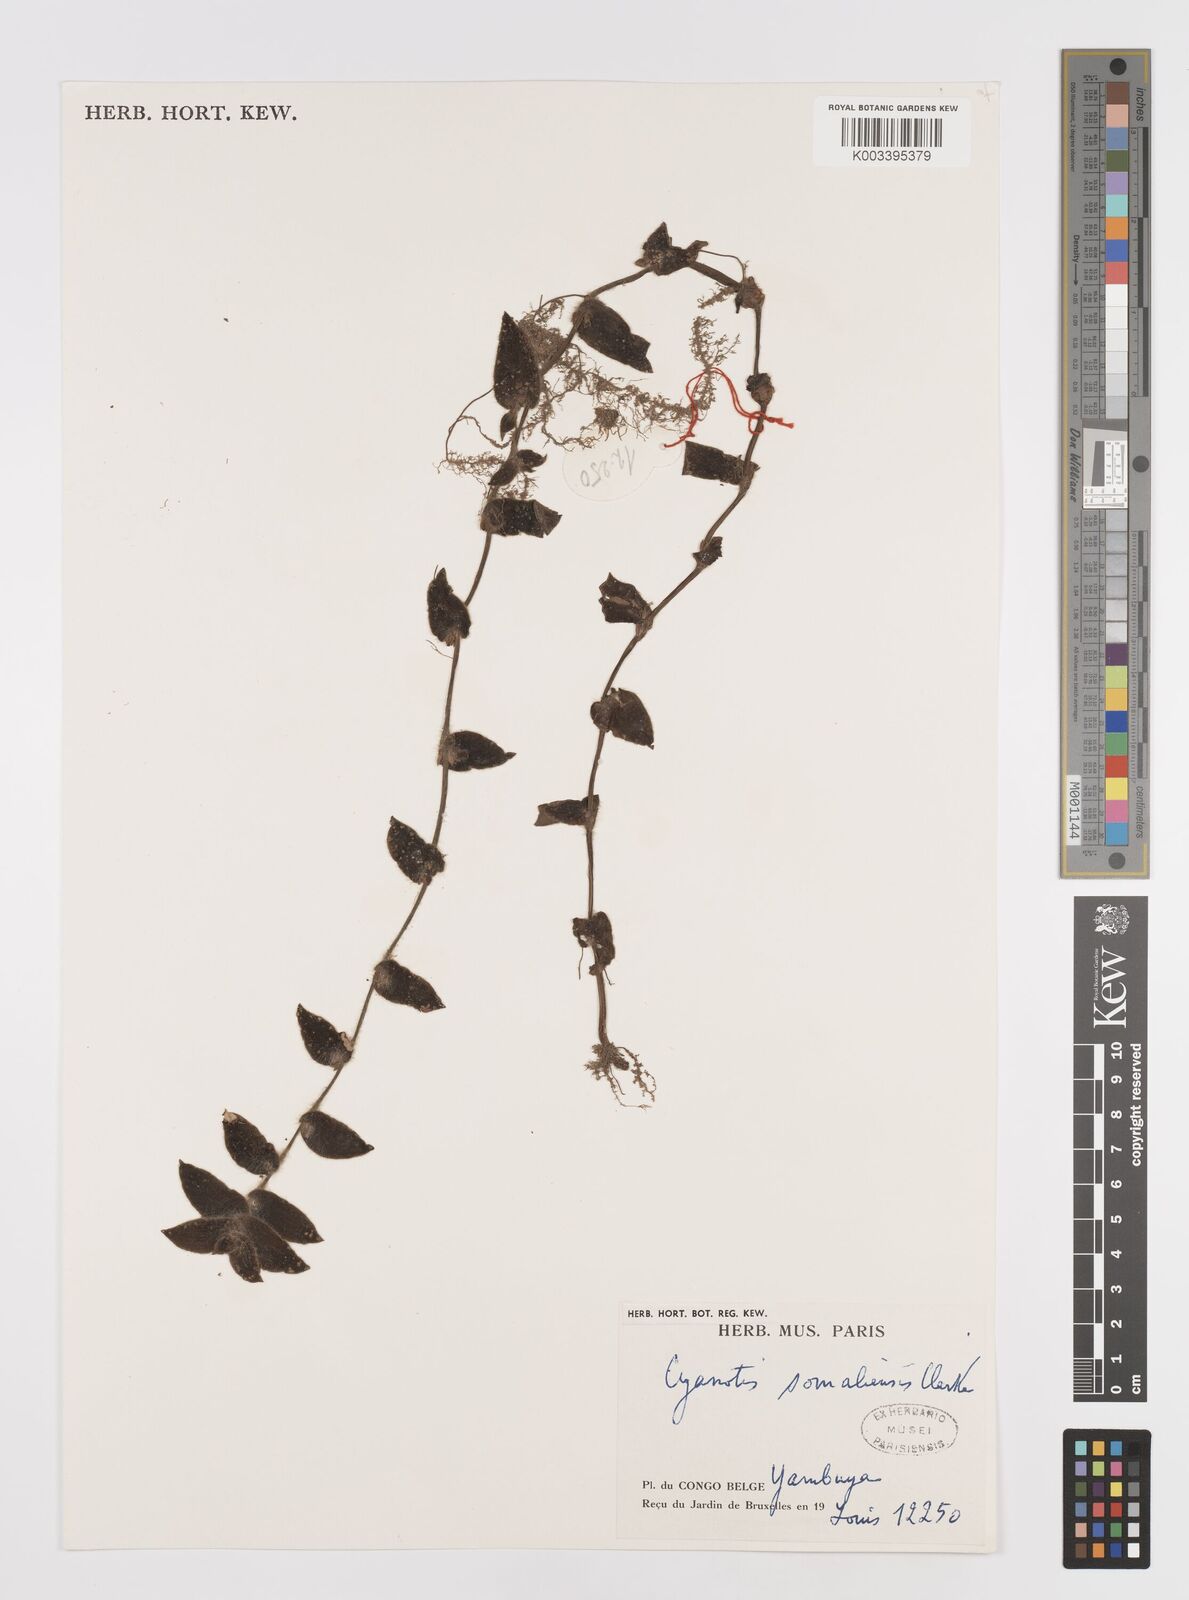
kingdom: Plantae
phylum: Tracheophyta
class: Liliopsida
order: Commelinales
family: Commelinaceae
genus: Cyanotis
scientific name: Cyanotis foecunda
